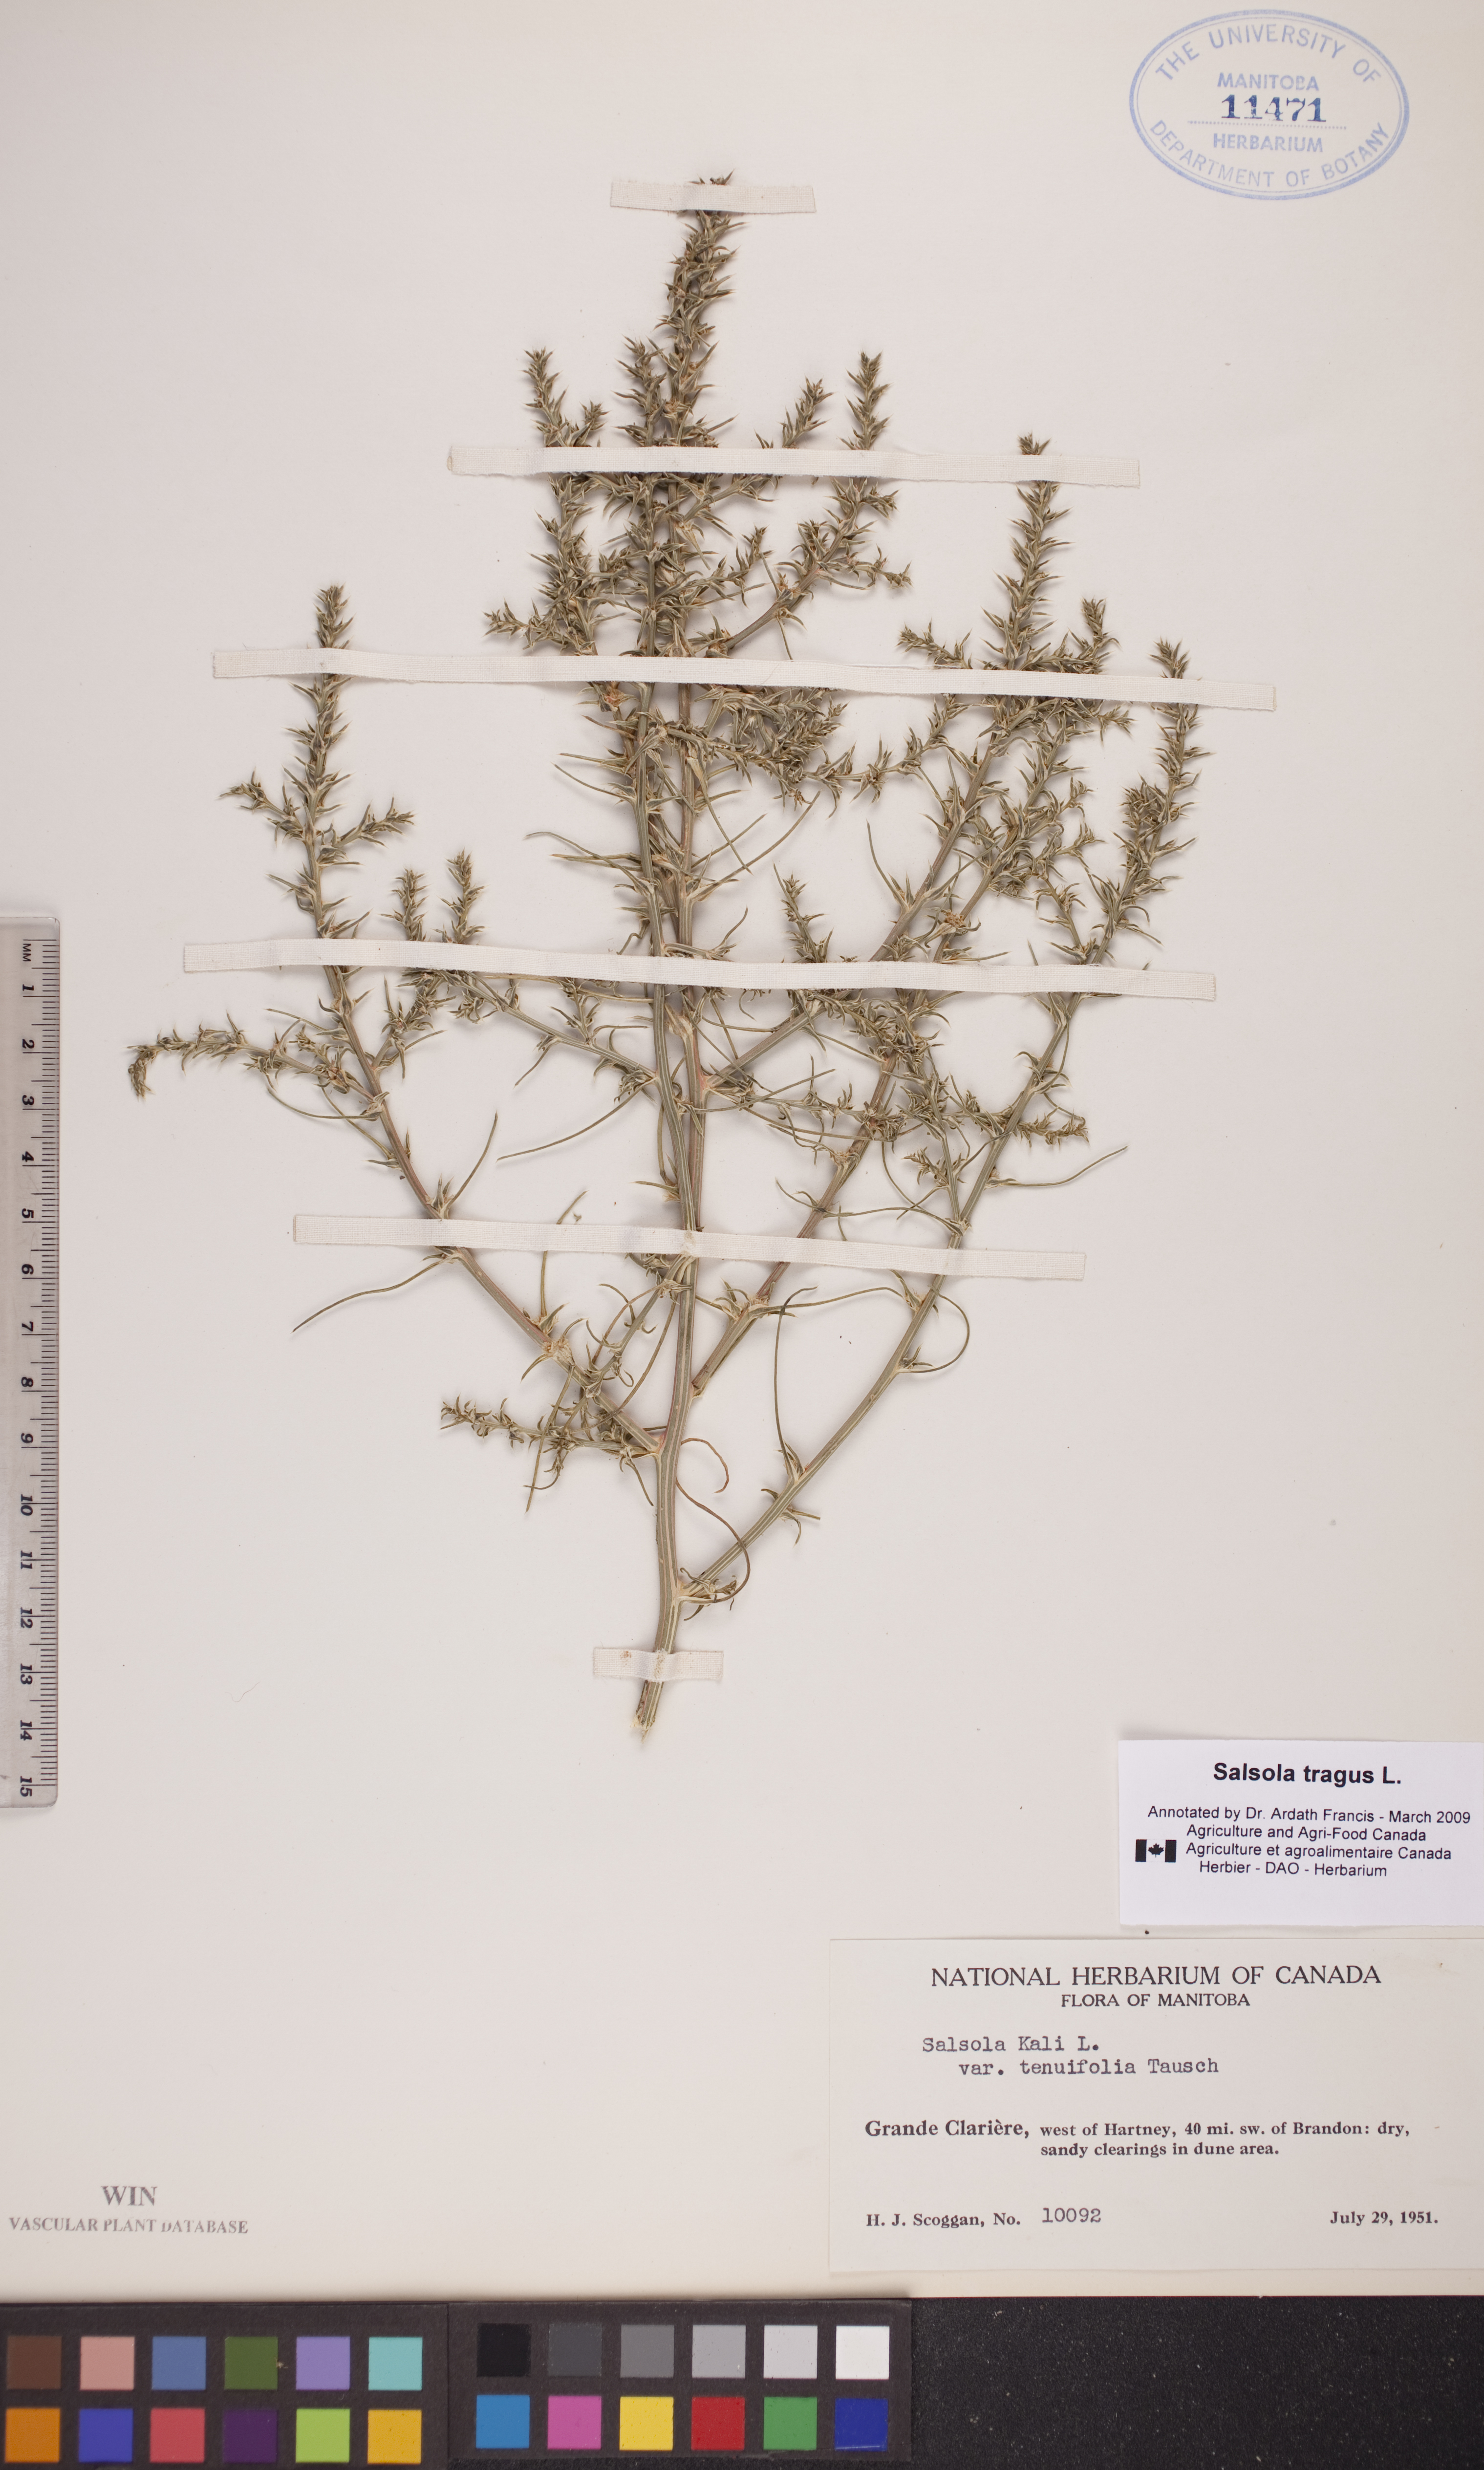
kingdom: Plantae
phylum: Tracheophyta
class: Magnoliopsida
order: Caryophyllales
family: Amaranthaceae
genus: Salsola
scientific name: Salsola tragus
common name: Prickly russian thistle
